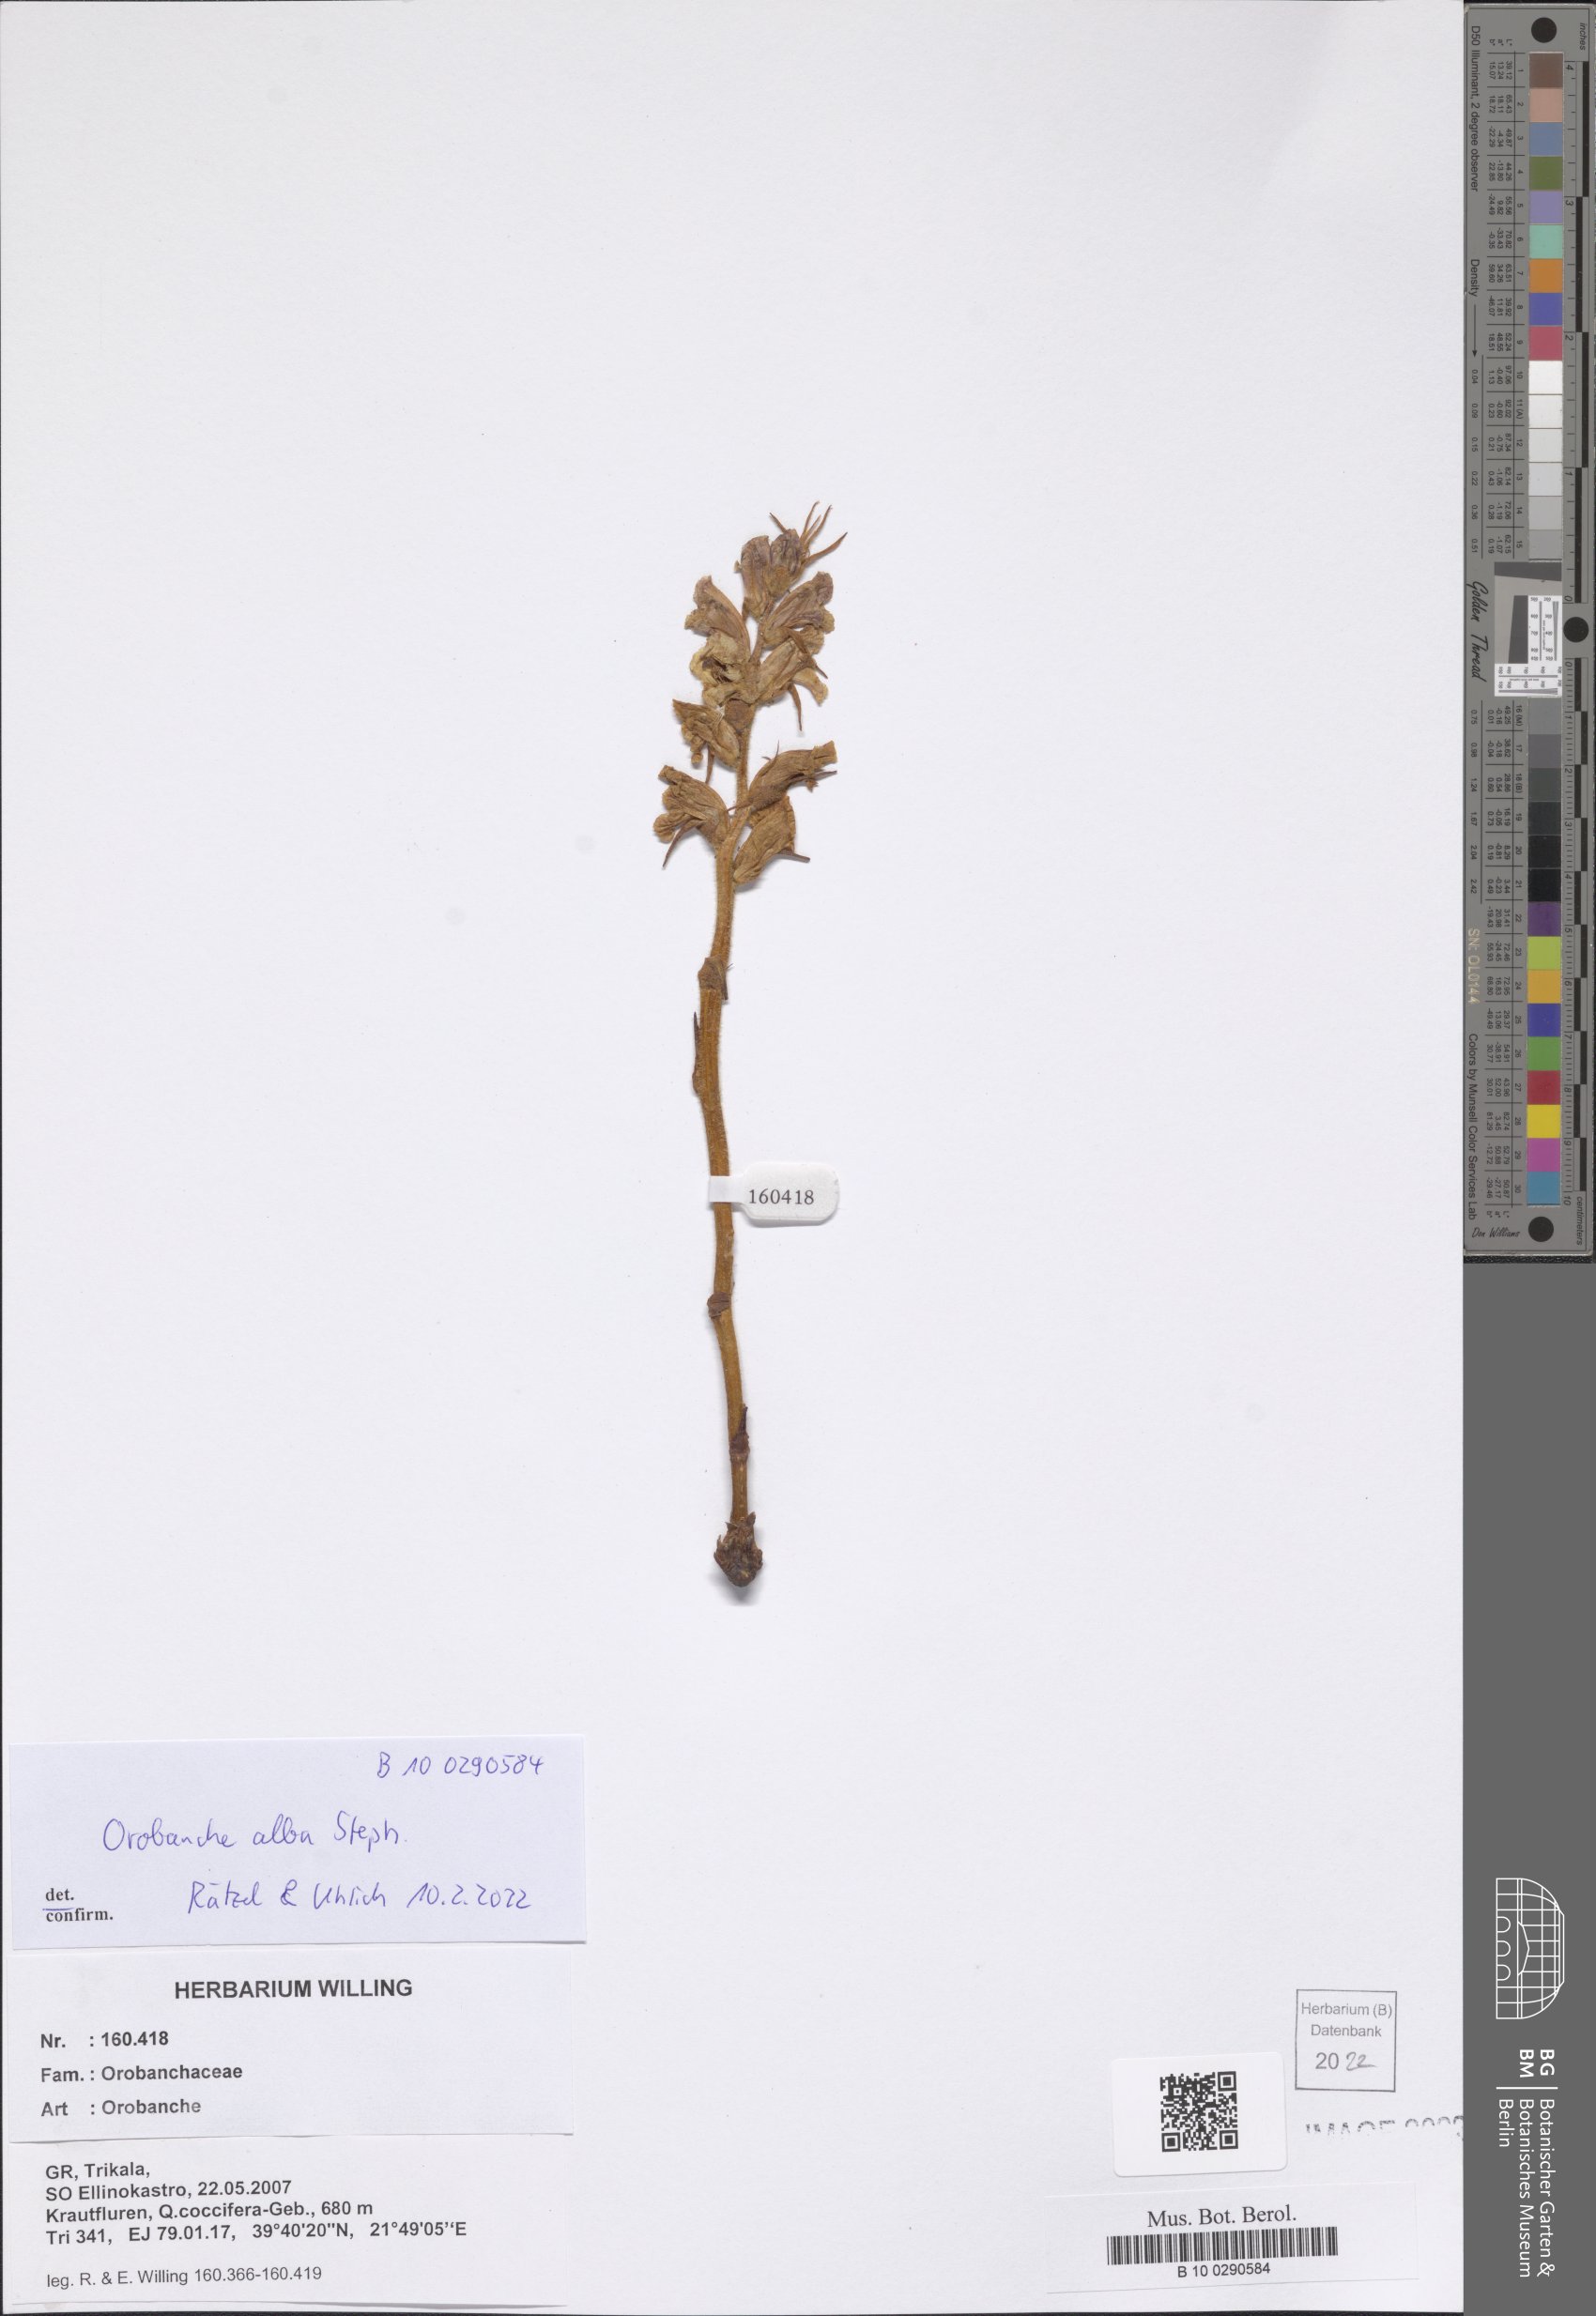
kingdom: Plantae
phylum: Tracheophyta
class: Magnoliopsida
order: Lamiales
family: Orobanchaceae
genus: Orobanche
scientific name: Orobanche alba
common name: Thyme broomrape
